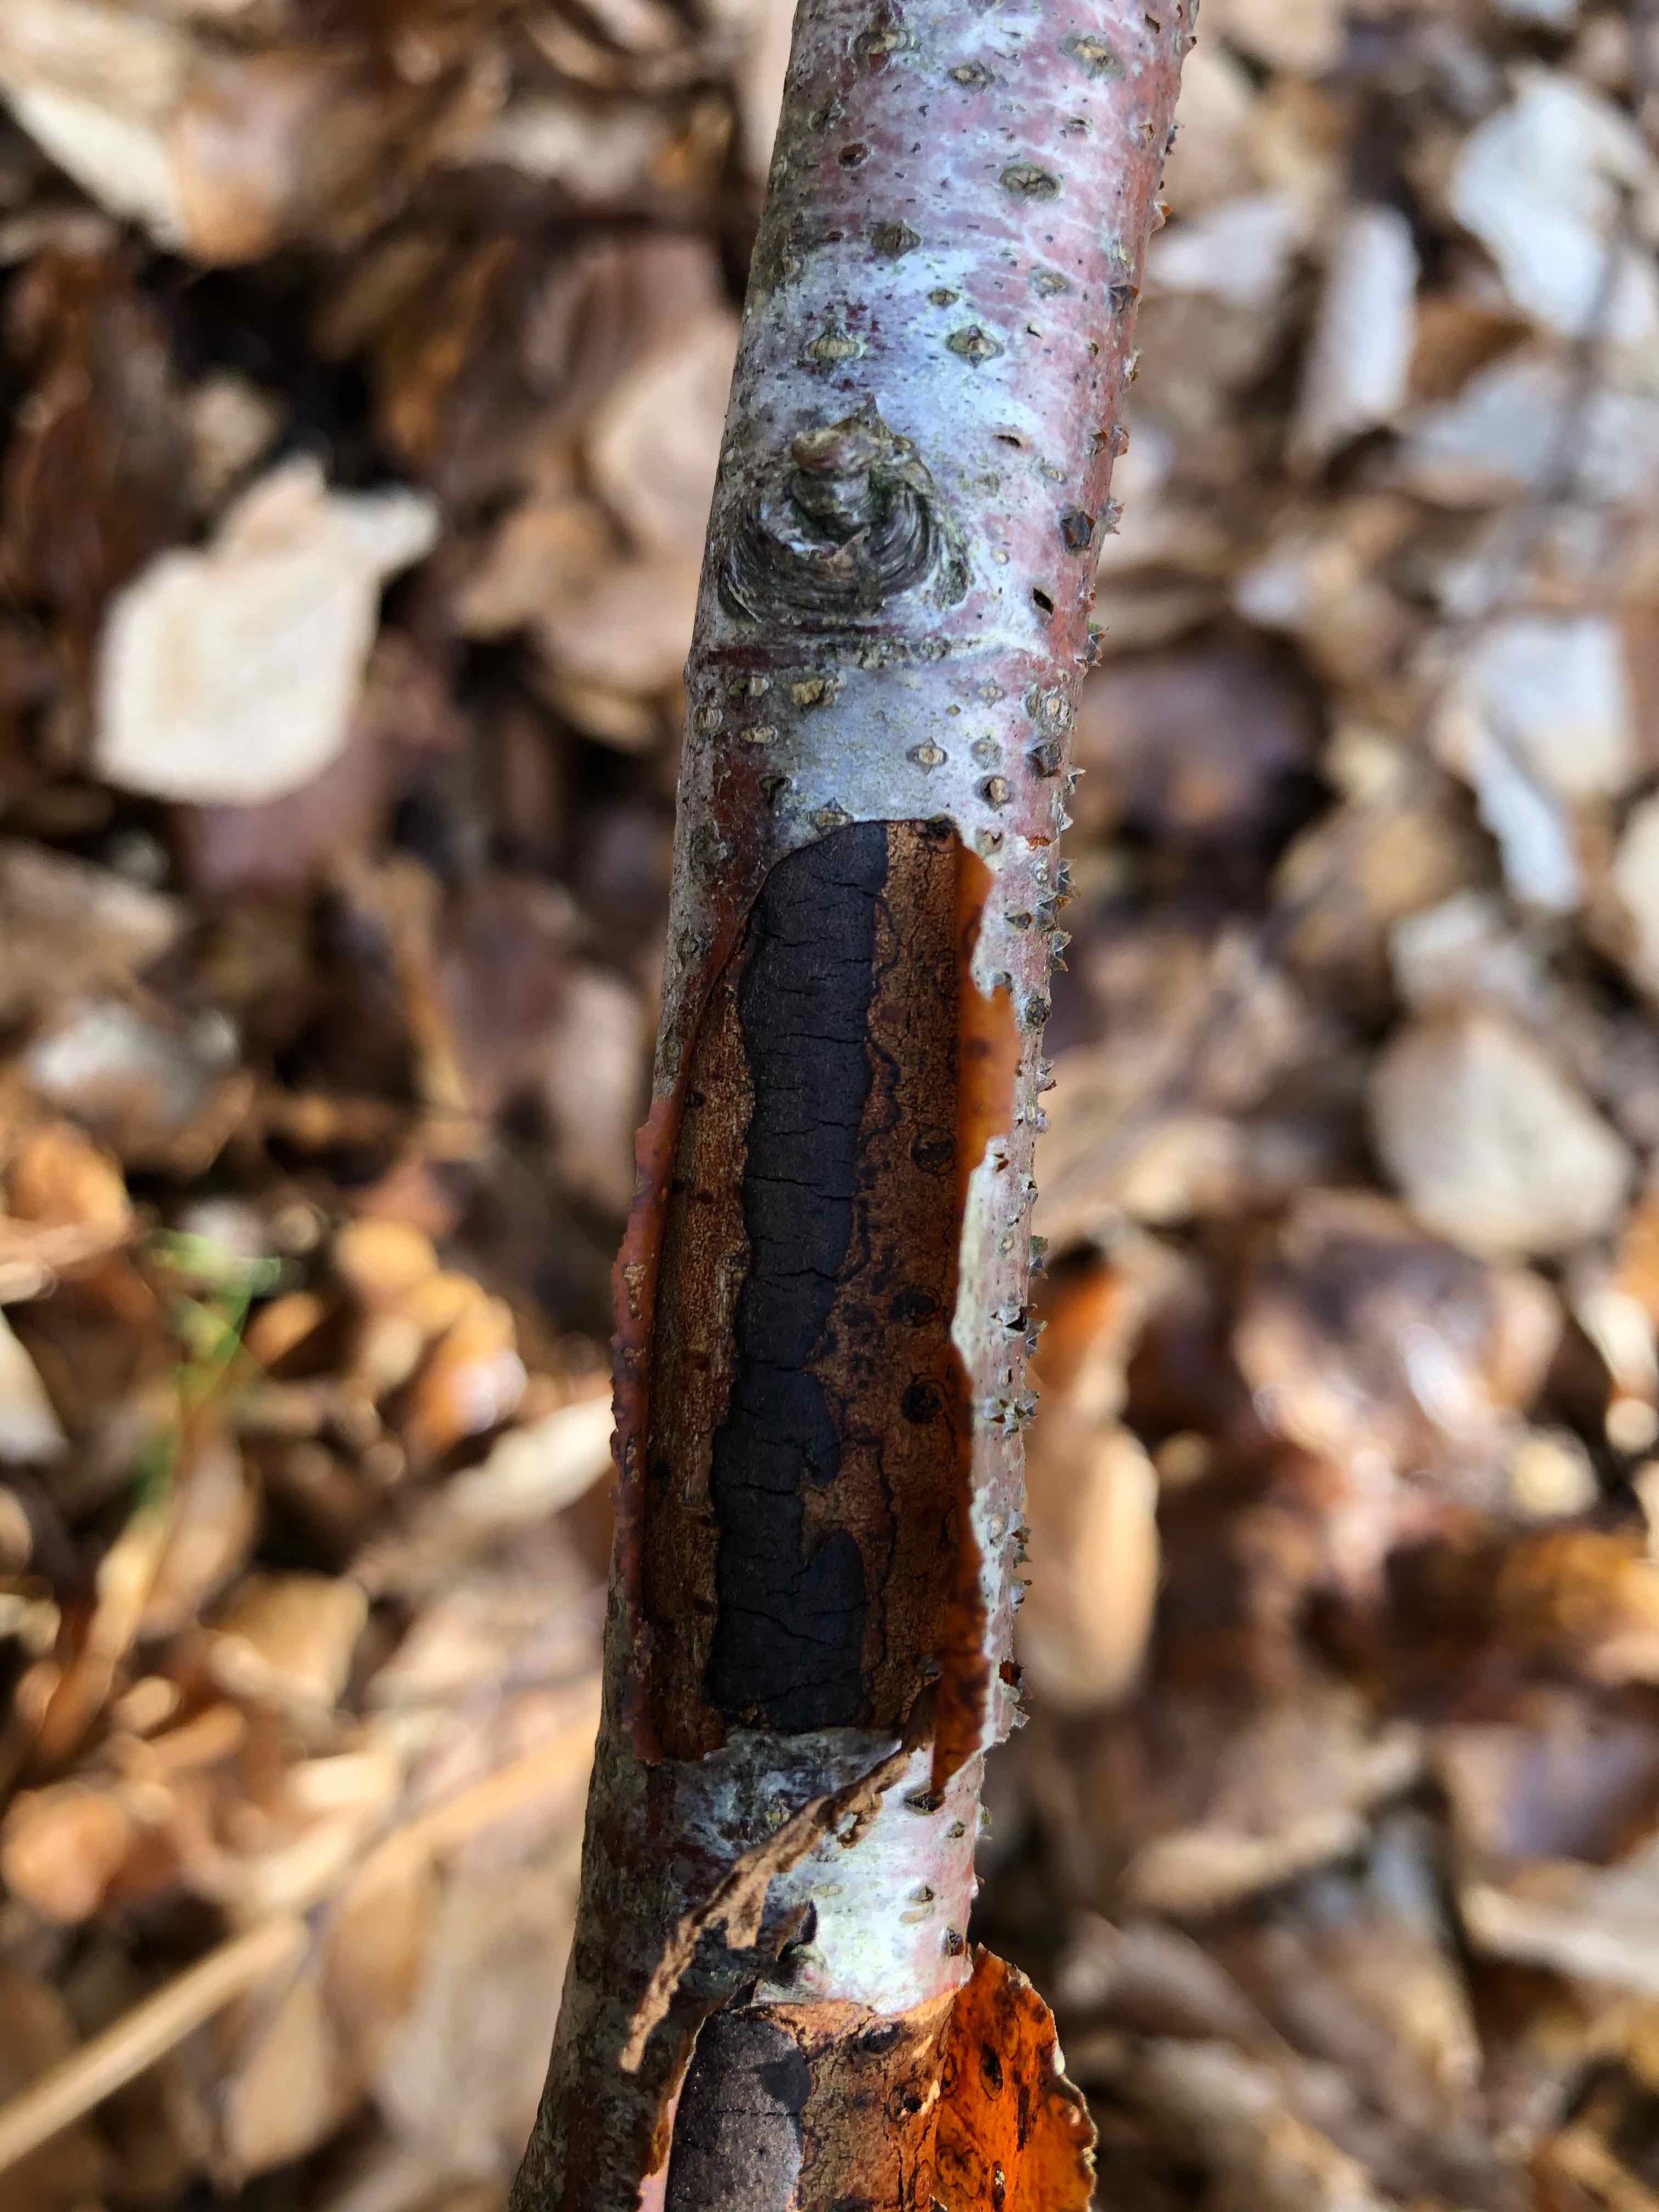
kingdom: Fungi
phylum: Ascomycota
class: Sordariomycetes
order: Xylariales
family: Diatrypaceae
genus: Diatrype
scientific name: Diatrype decorticata
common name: barksprænger-kulskorpe
